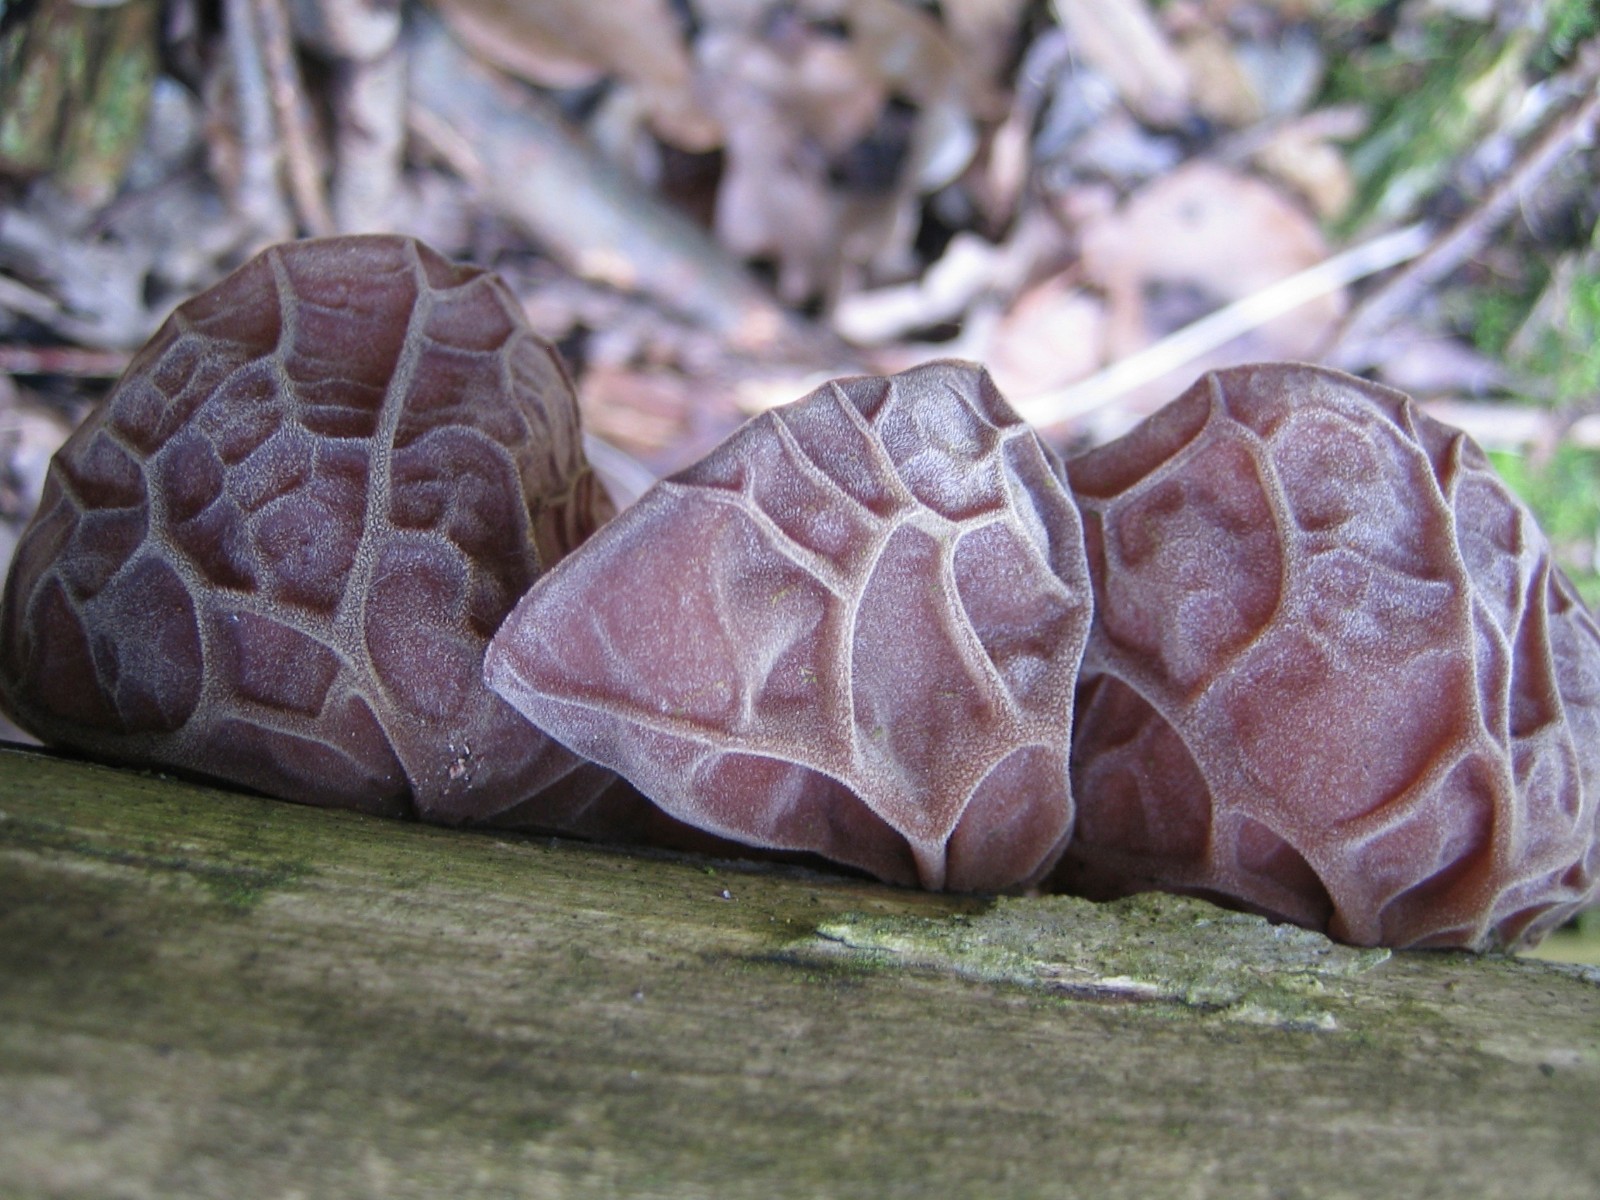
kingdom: Fungi
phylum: Basidiomycota
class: Agaricomycetes
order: Auriculariales
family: Auriculariaceae
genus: Auricularia
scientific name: Auricularia auricula-judae
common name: almindelig judasøre
